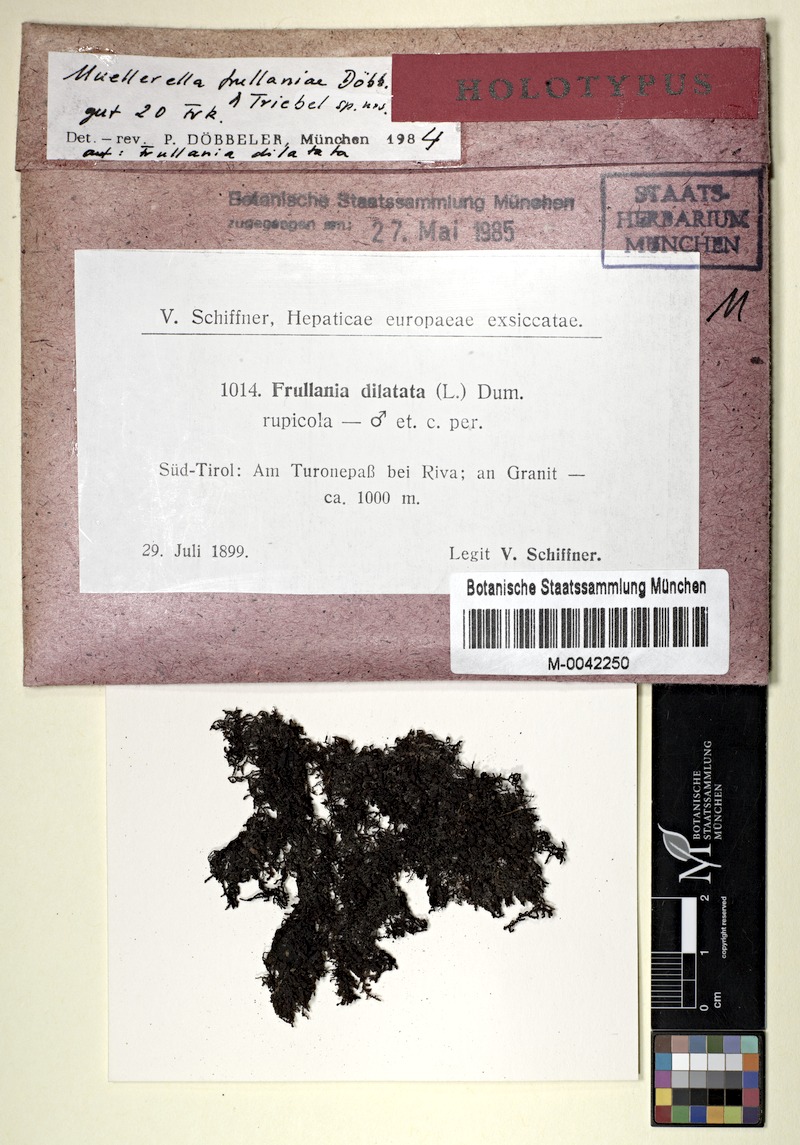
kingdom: Plantae
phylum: Marchantiophyta
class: Jungermanniopsida
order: Porellales
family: Frullaniaceae
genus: Frullania
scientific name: Frullania dilatata
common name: Dilated scalewort
